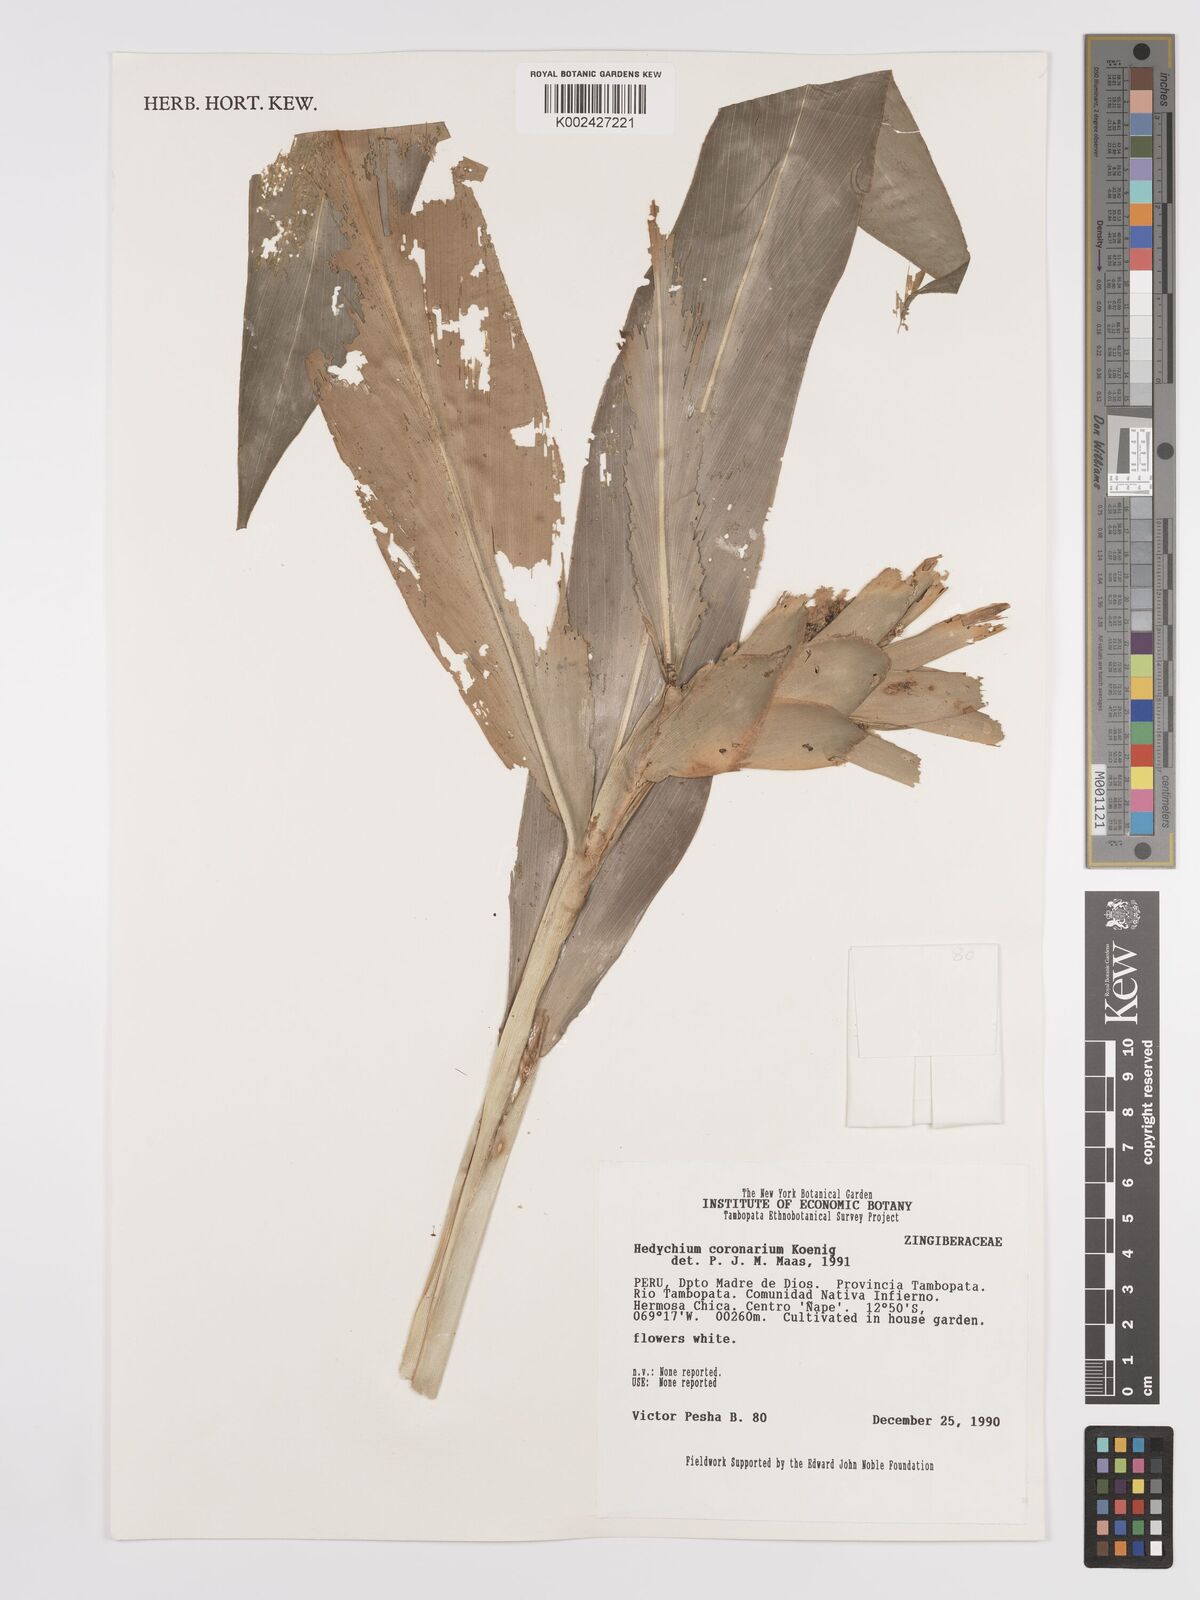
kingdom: Plantae
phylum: Tracheophyta
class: Liliopsida
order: Zingiberales
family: Zingiberaceae
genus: Hedychium
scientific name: Hedychium coronarium
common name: White garland-lily
